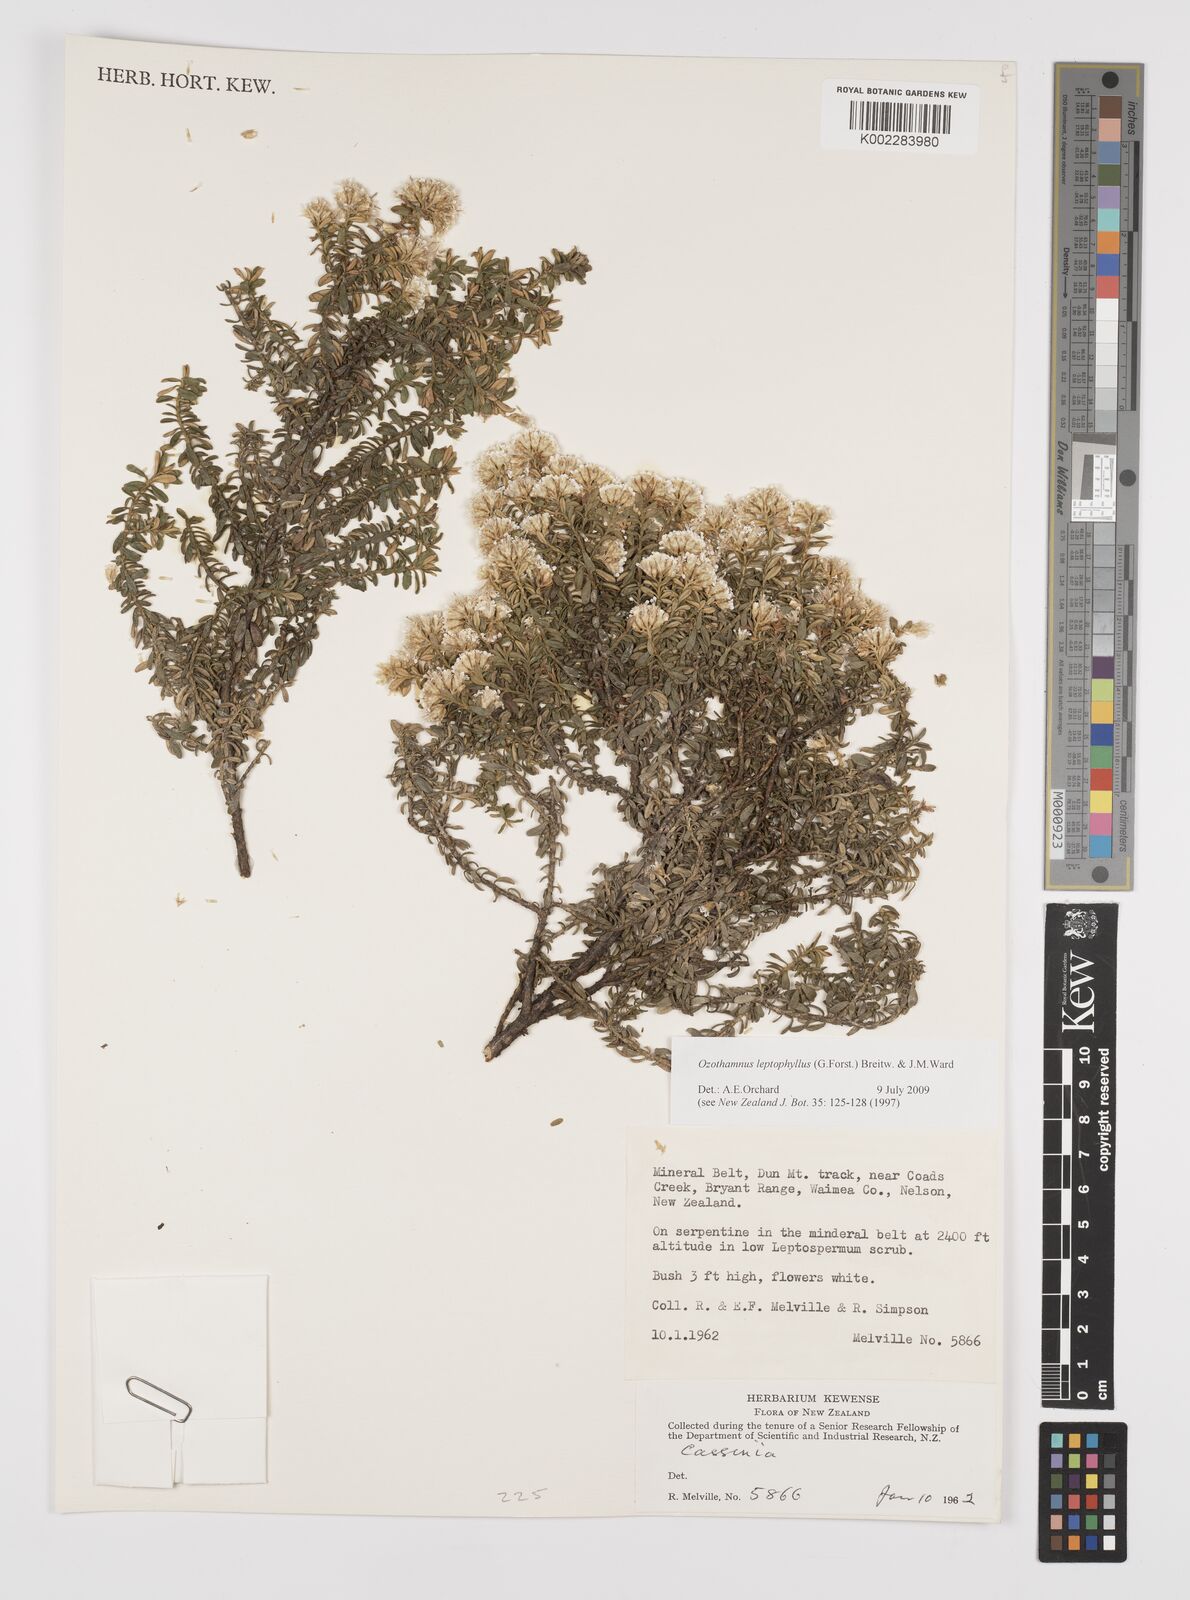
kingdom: Plantae
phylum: Tracheophyta
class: Magnoliopsida
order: Asterales
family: Asteraceae
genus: Ozothamnus
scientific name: Ozothamnus
